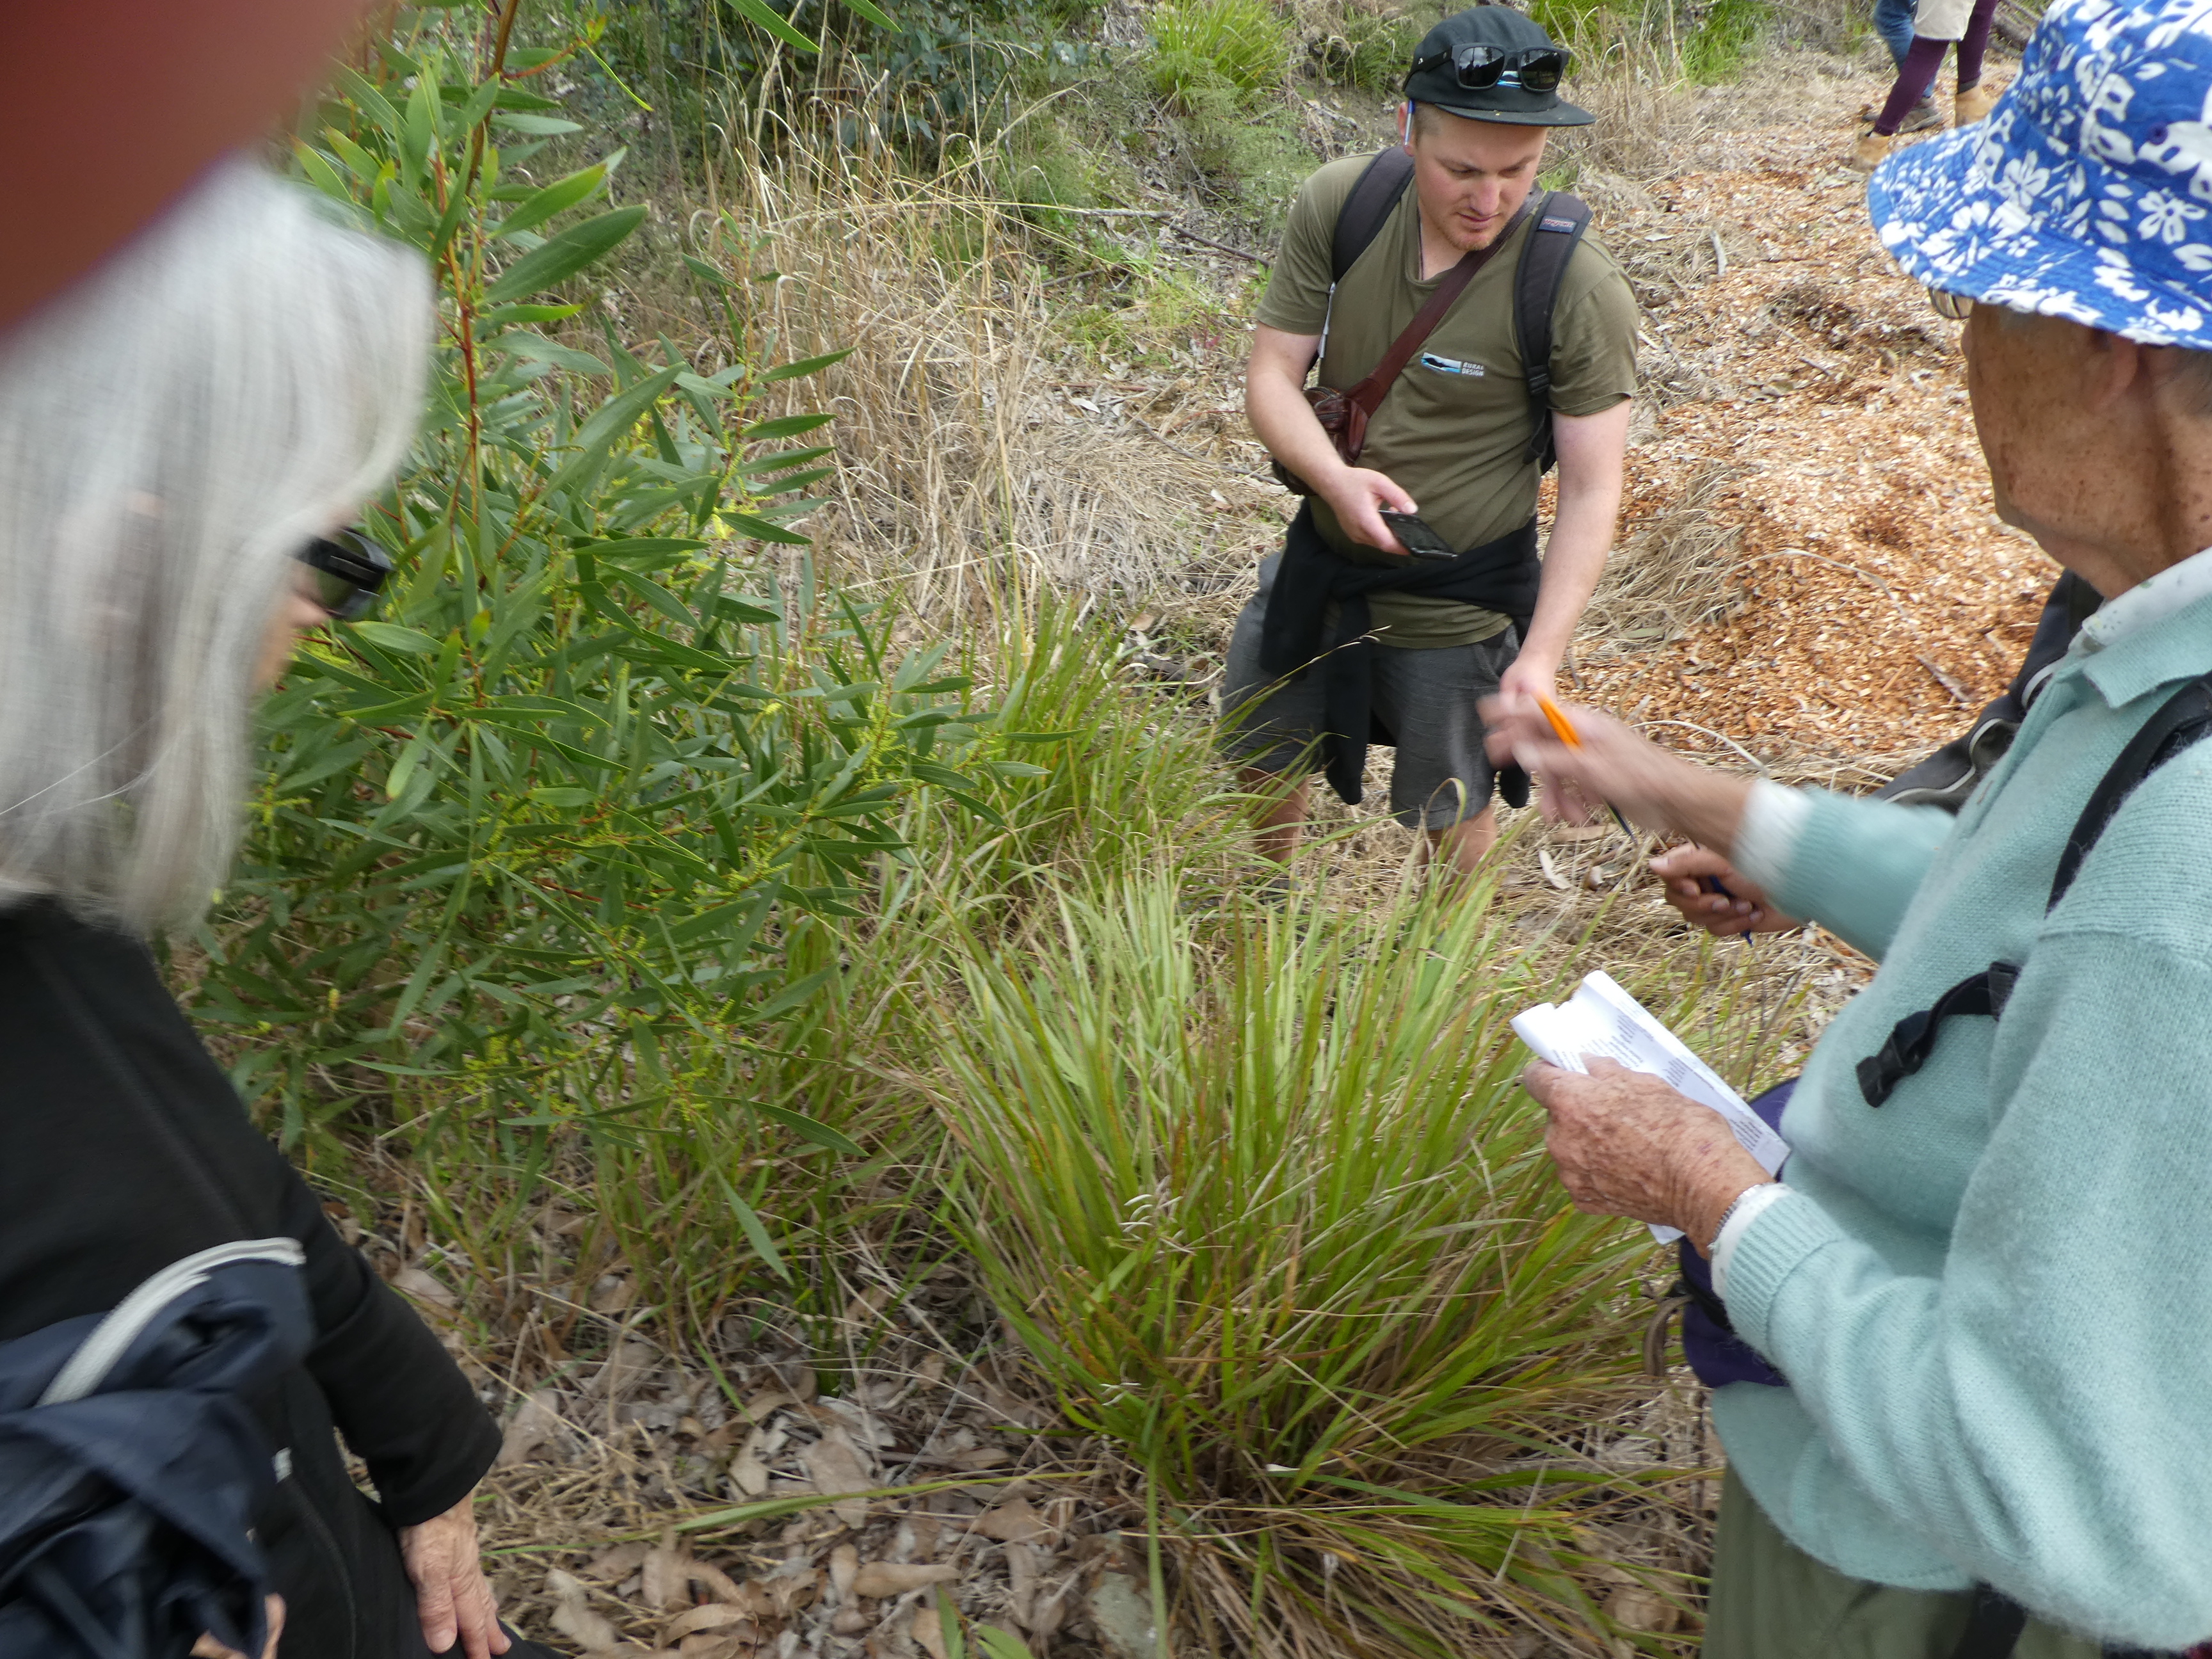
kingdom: Plantae
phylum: Tracheophyta
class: Liliopsida
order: Poales
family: Poaceae
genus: Paspalum
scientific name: Paspalum orbiculare
